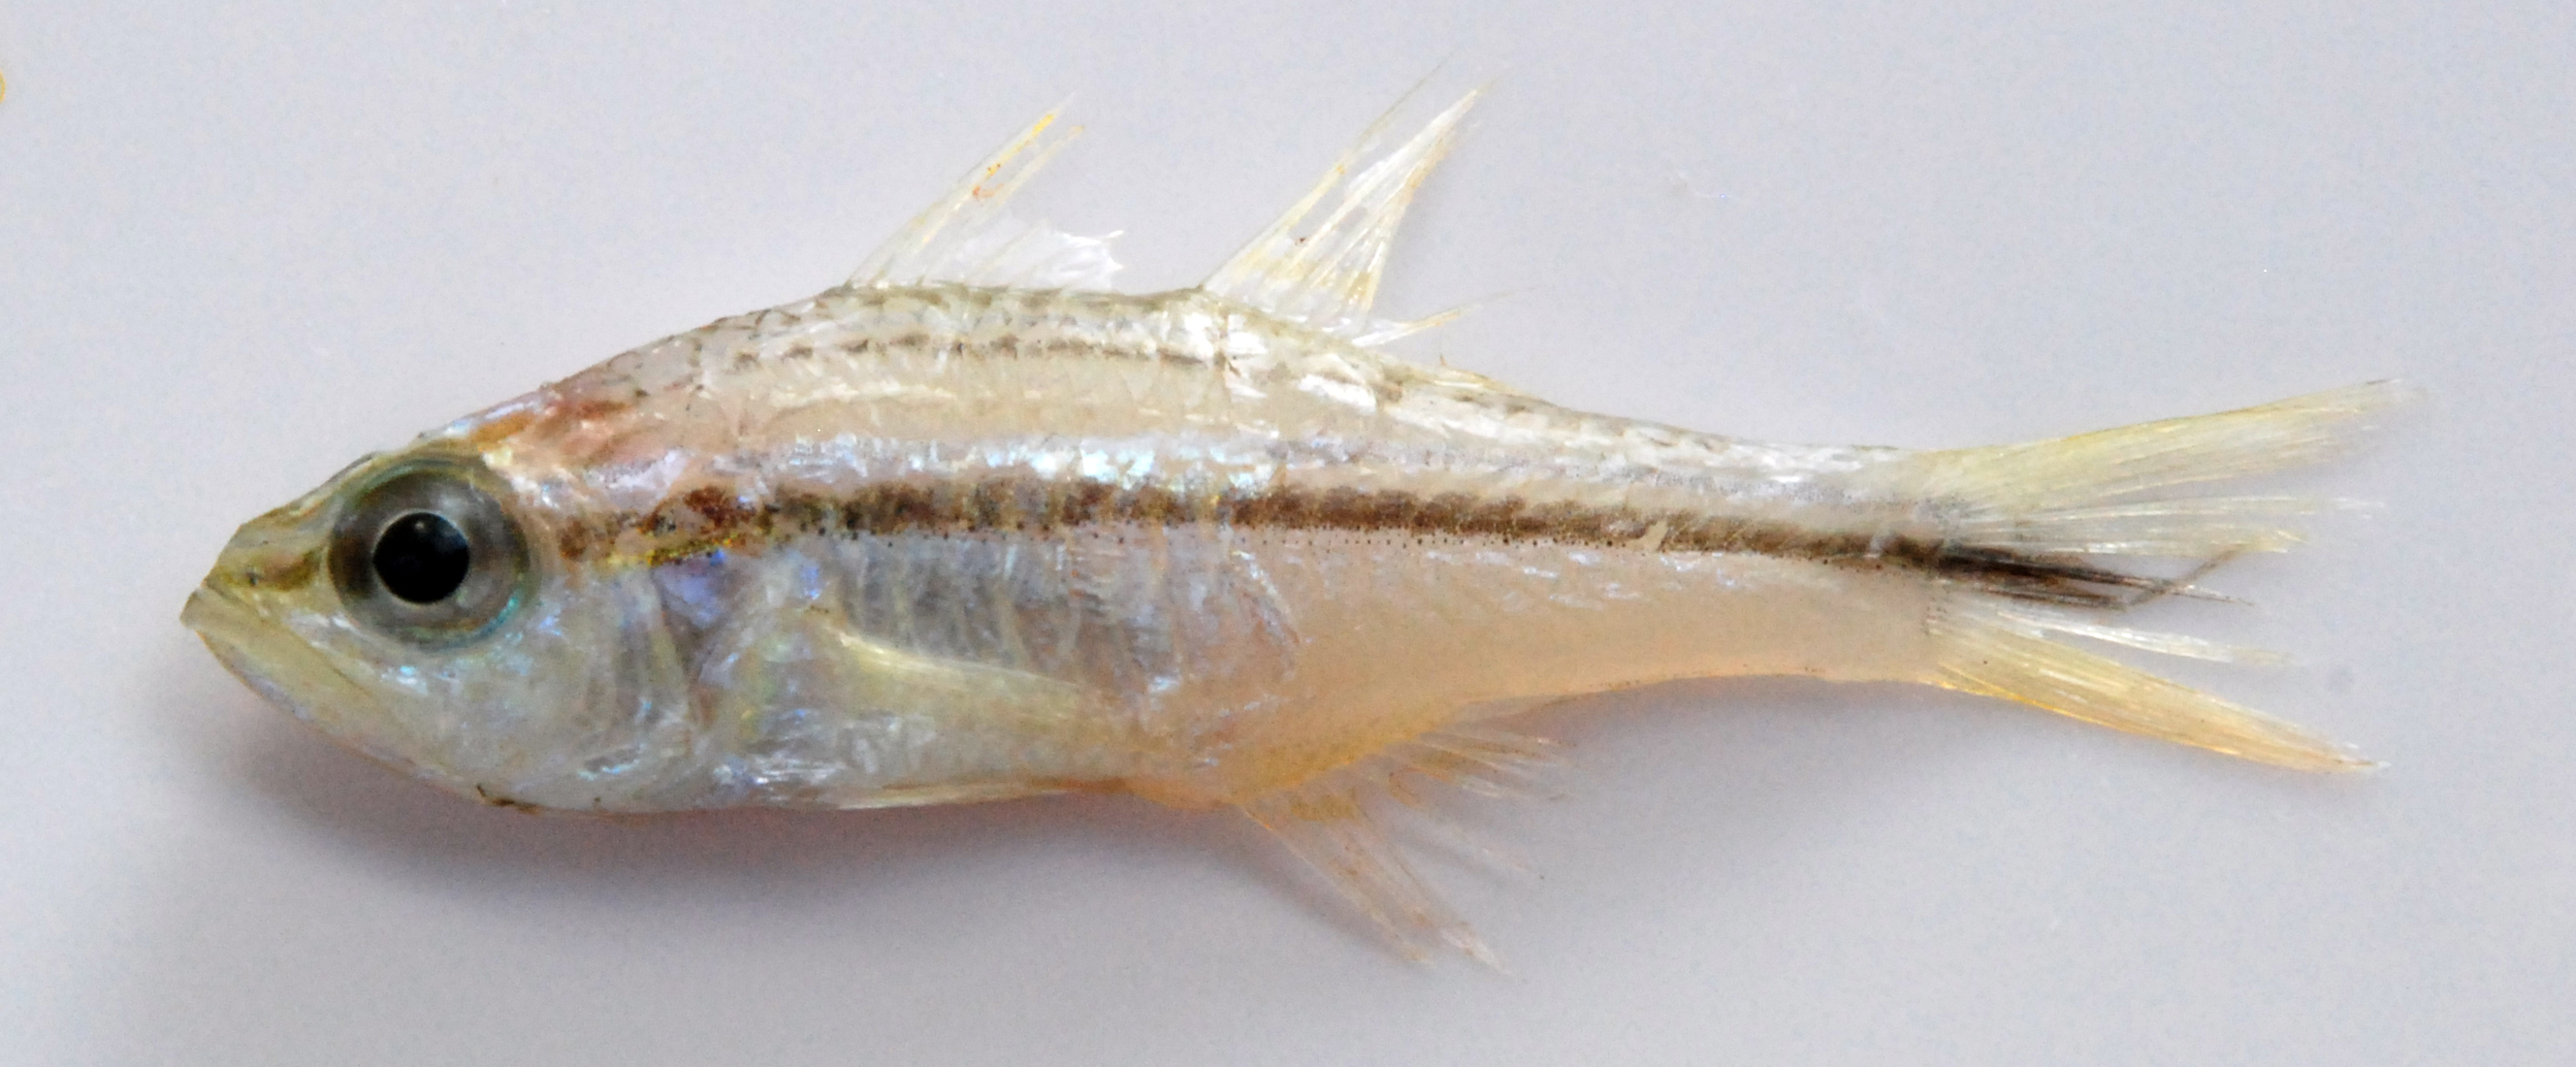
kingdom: Animalia
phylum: Chordata
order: Perciformes
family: Apogonidae
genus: Ostorhinchus
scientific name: Ostorhinchus fasciatus
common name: Twostripe cardinal
